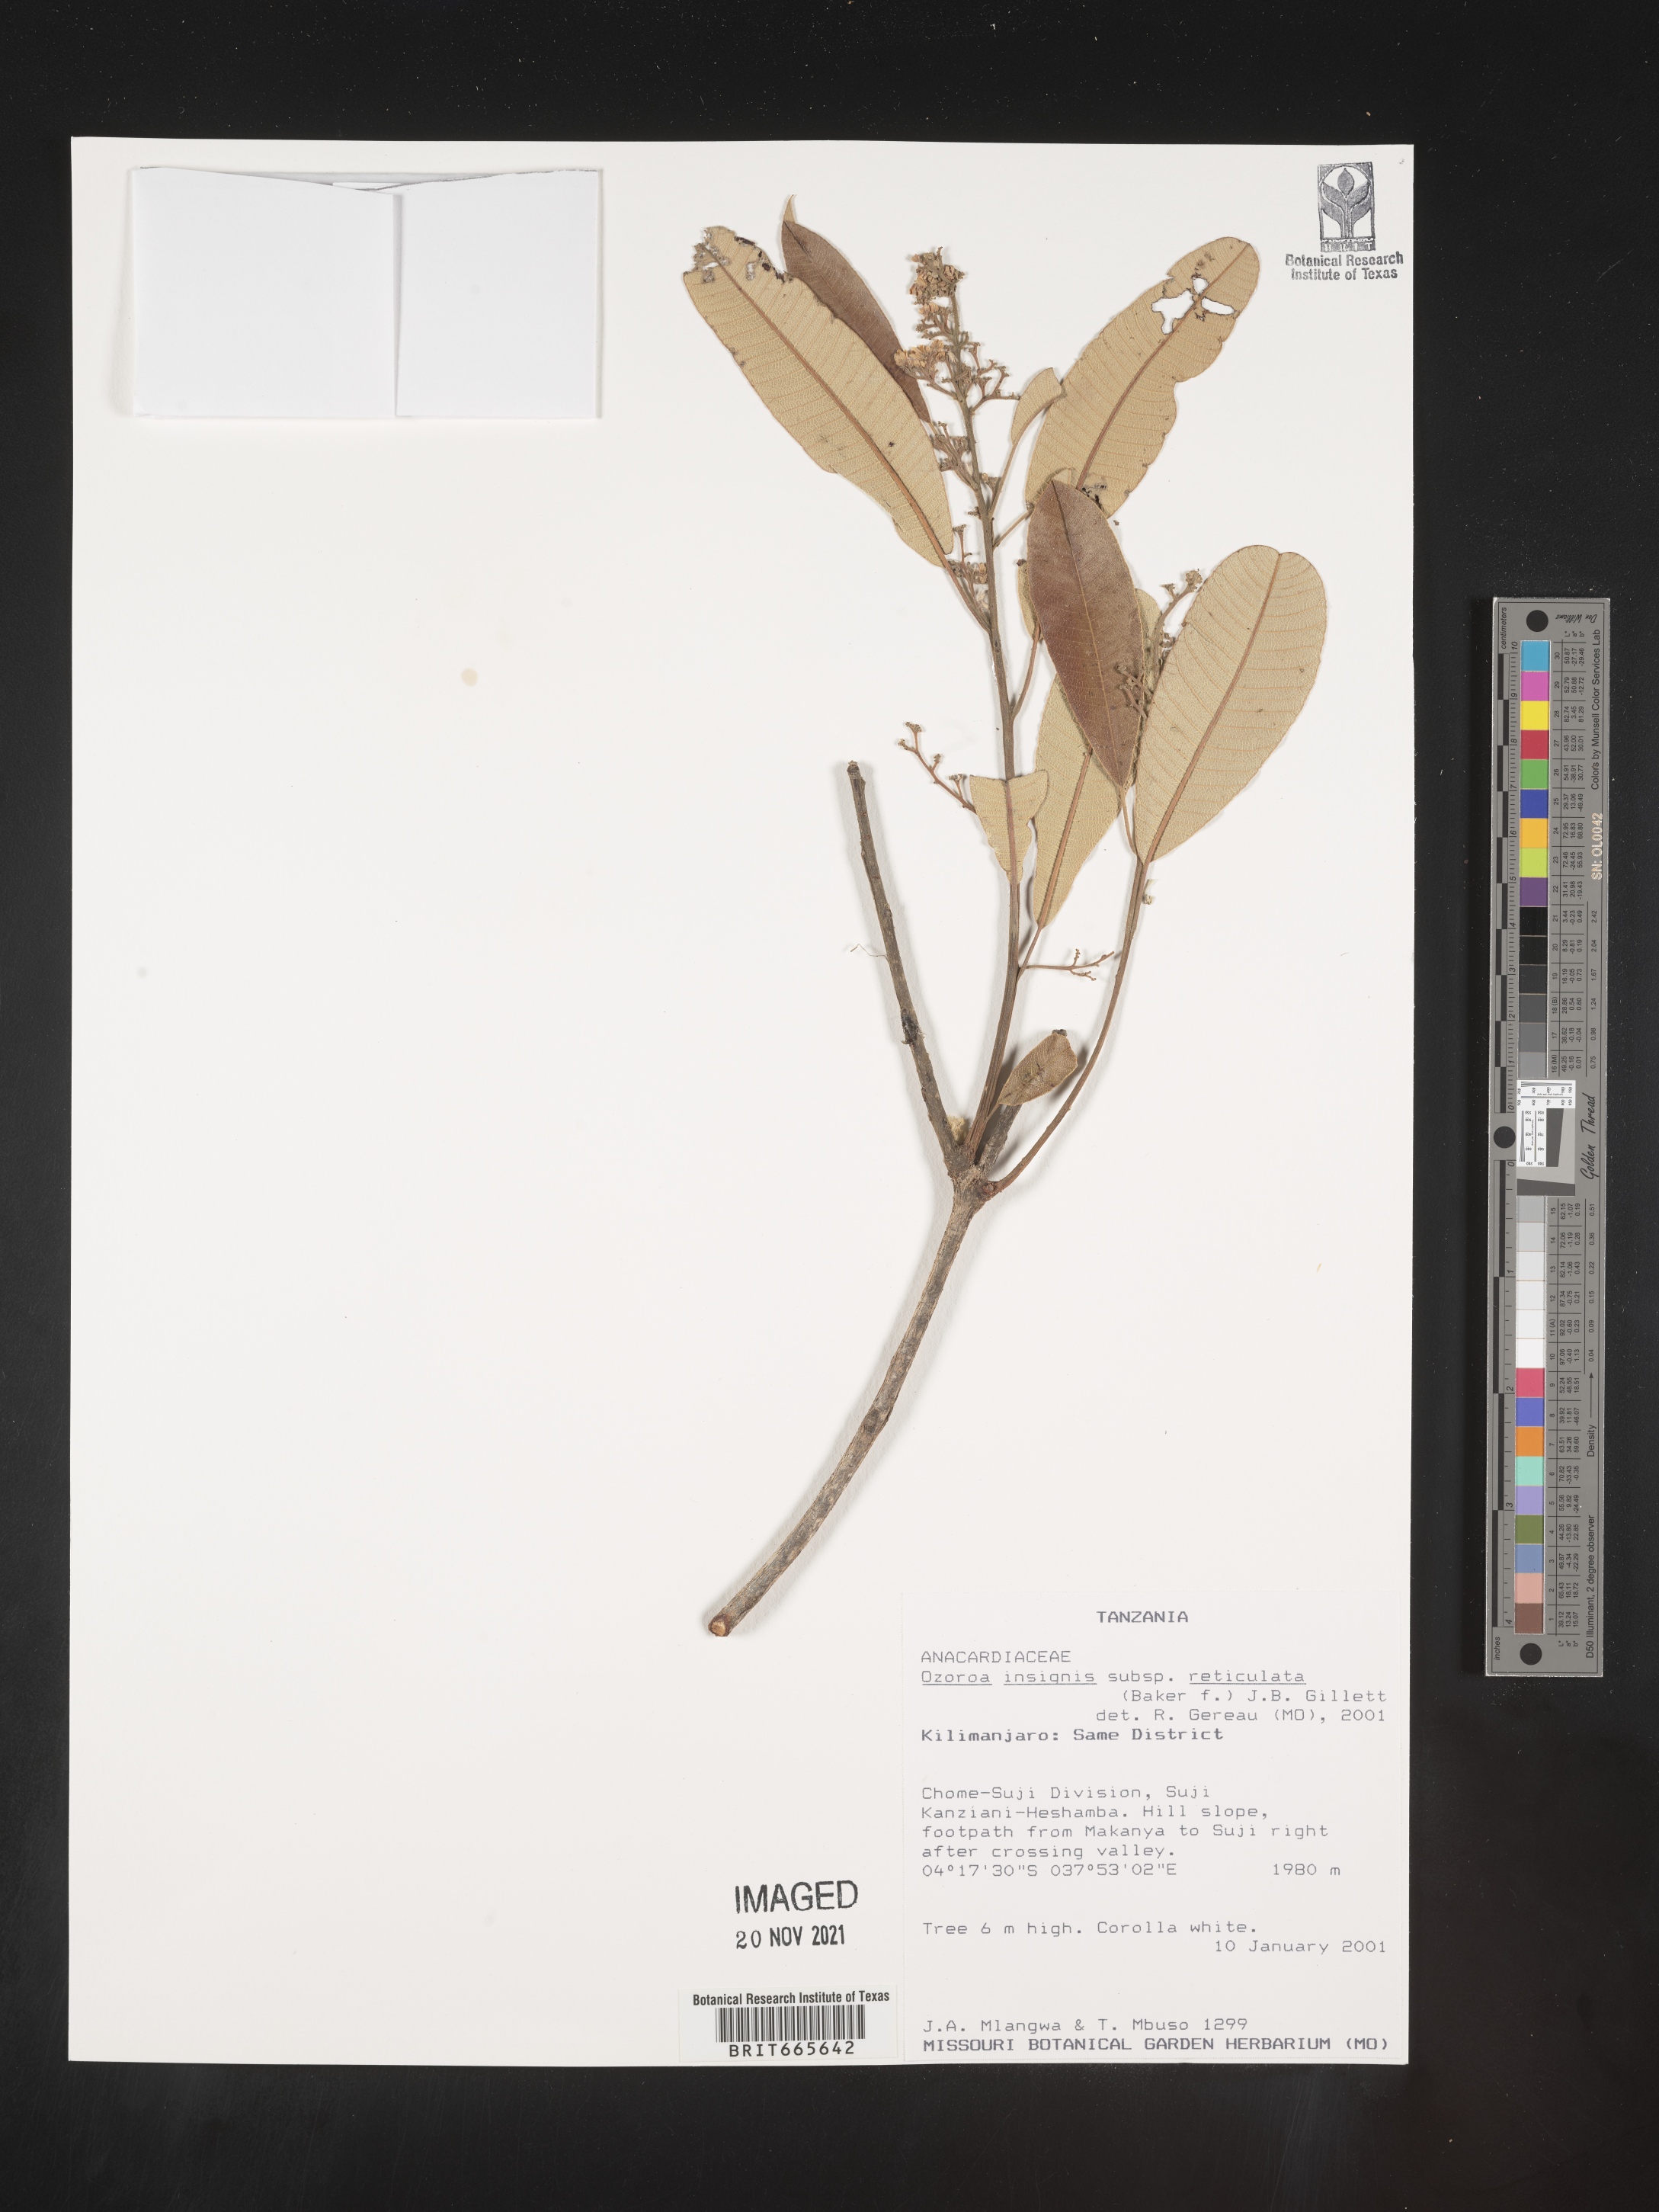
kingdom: Plantae
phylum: Tracheophyta
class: Magnoliopsida
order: Sapindales
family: Anacardiaceae
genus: Ozoroa
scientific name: Ozoroa
